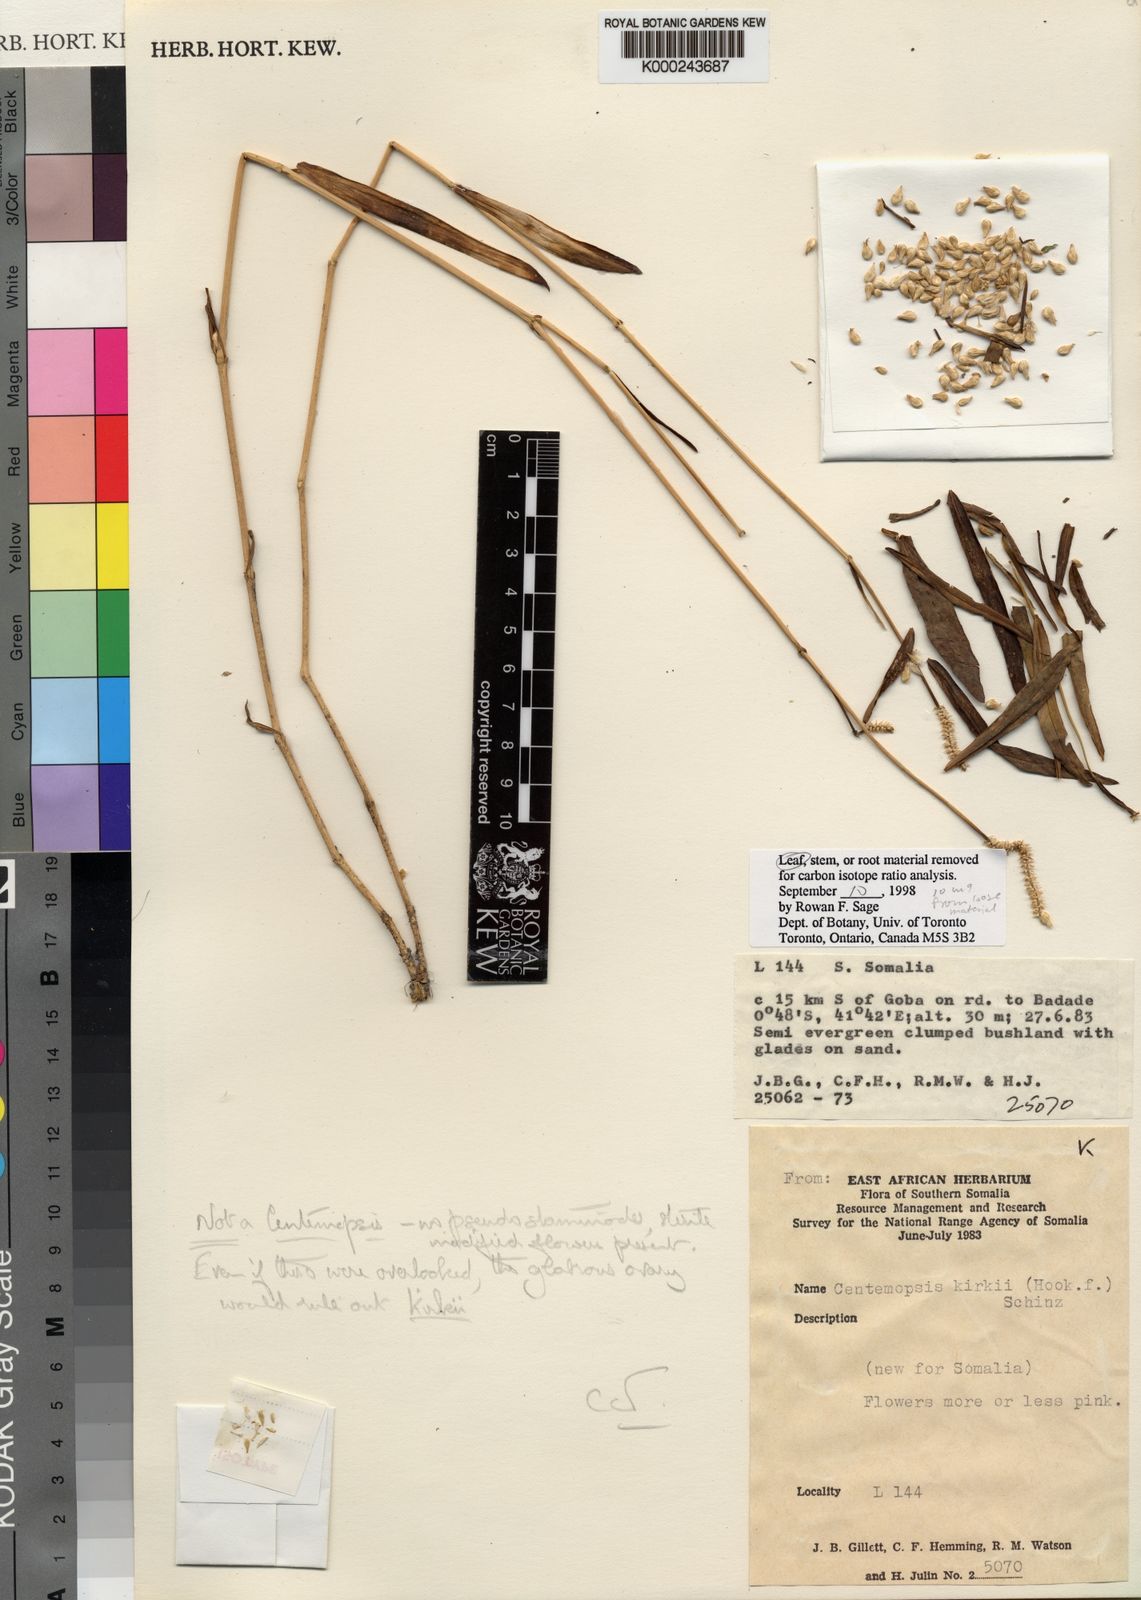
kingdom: Plantae
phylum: Tracheophyta
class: Magnoliopsida
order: Caryophyllales
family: Amaranthaceae
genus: Rosifax
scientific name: Rosifax sabuletorum
